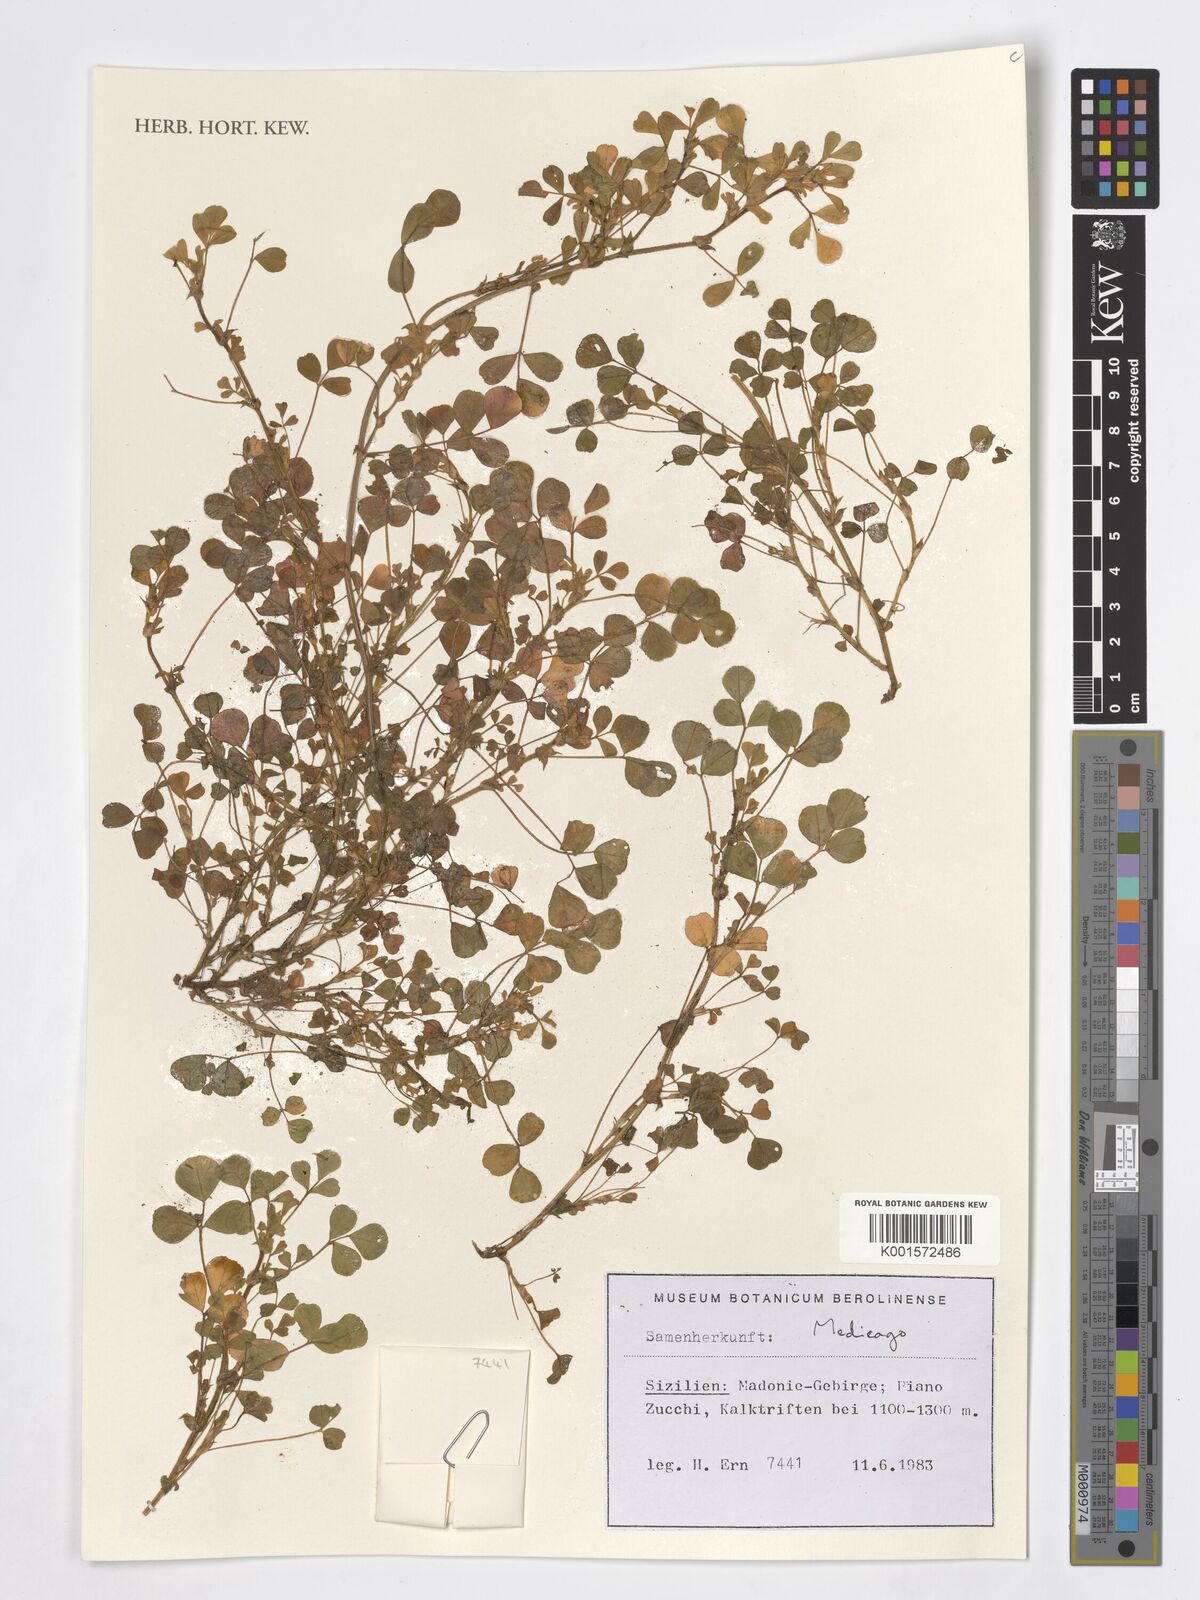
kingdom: Plantae
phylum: Tracheophyta
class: Magnoliopsida
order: Fabales
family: Fabaceae
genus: Medicago
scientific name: Medicago
